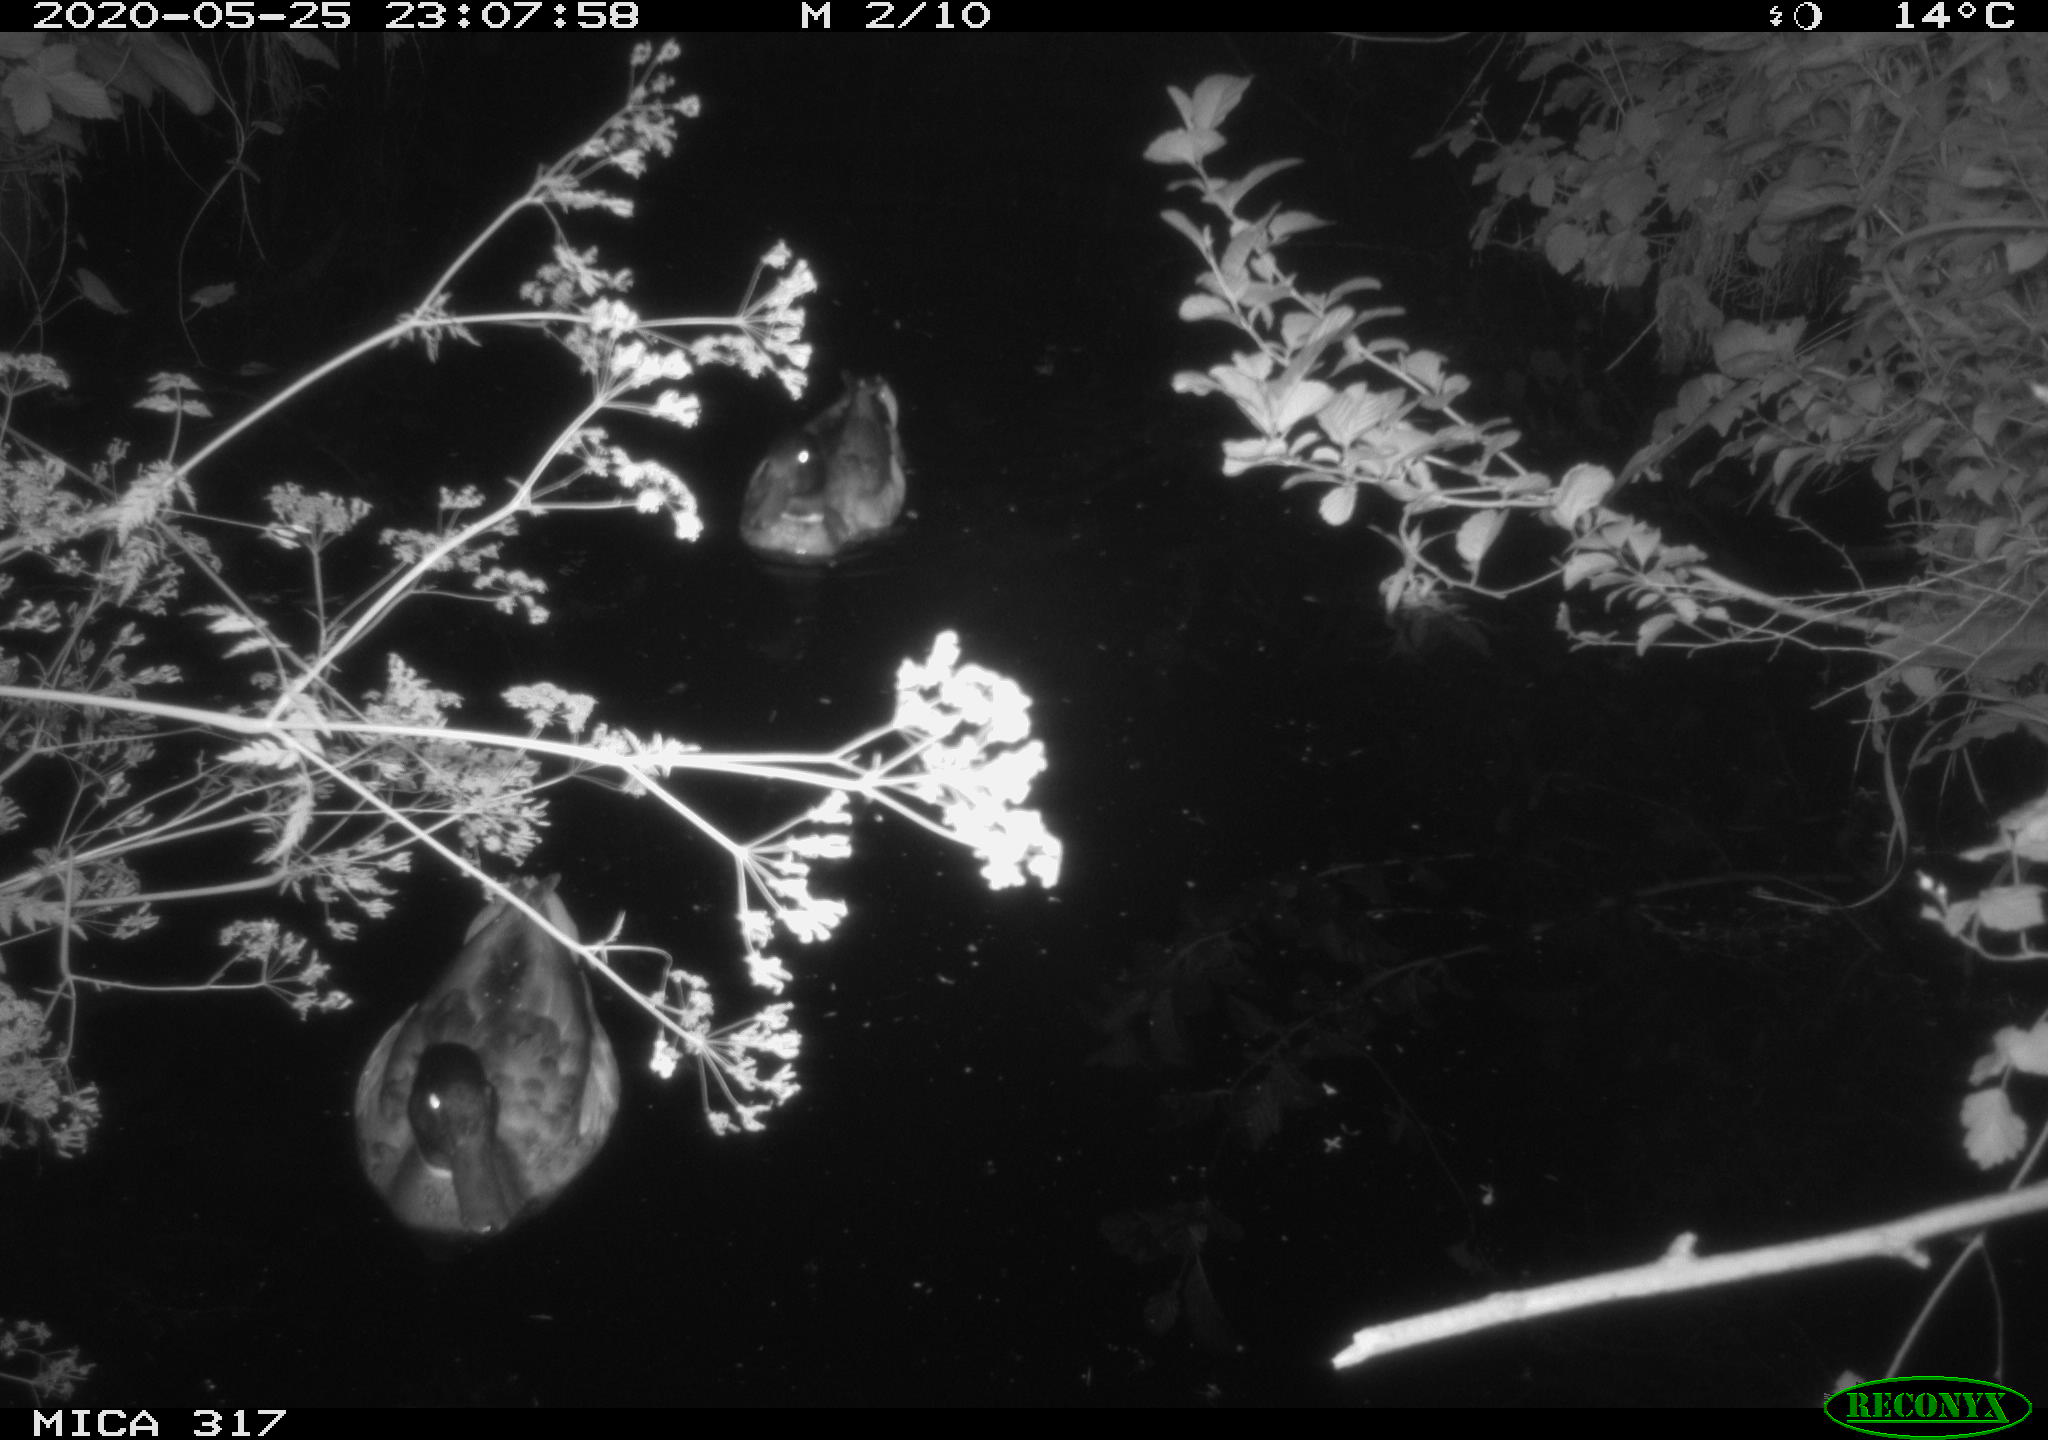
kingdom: Animalia
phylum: Chordata
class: Aves
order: Anseriformes
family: Anatidae
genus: Anas
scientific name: Anas platyrhynchos
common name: Mallard
